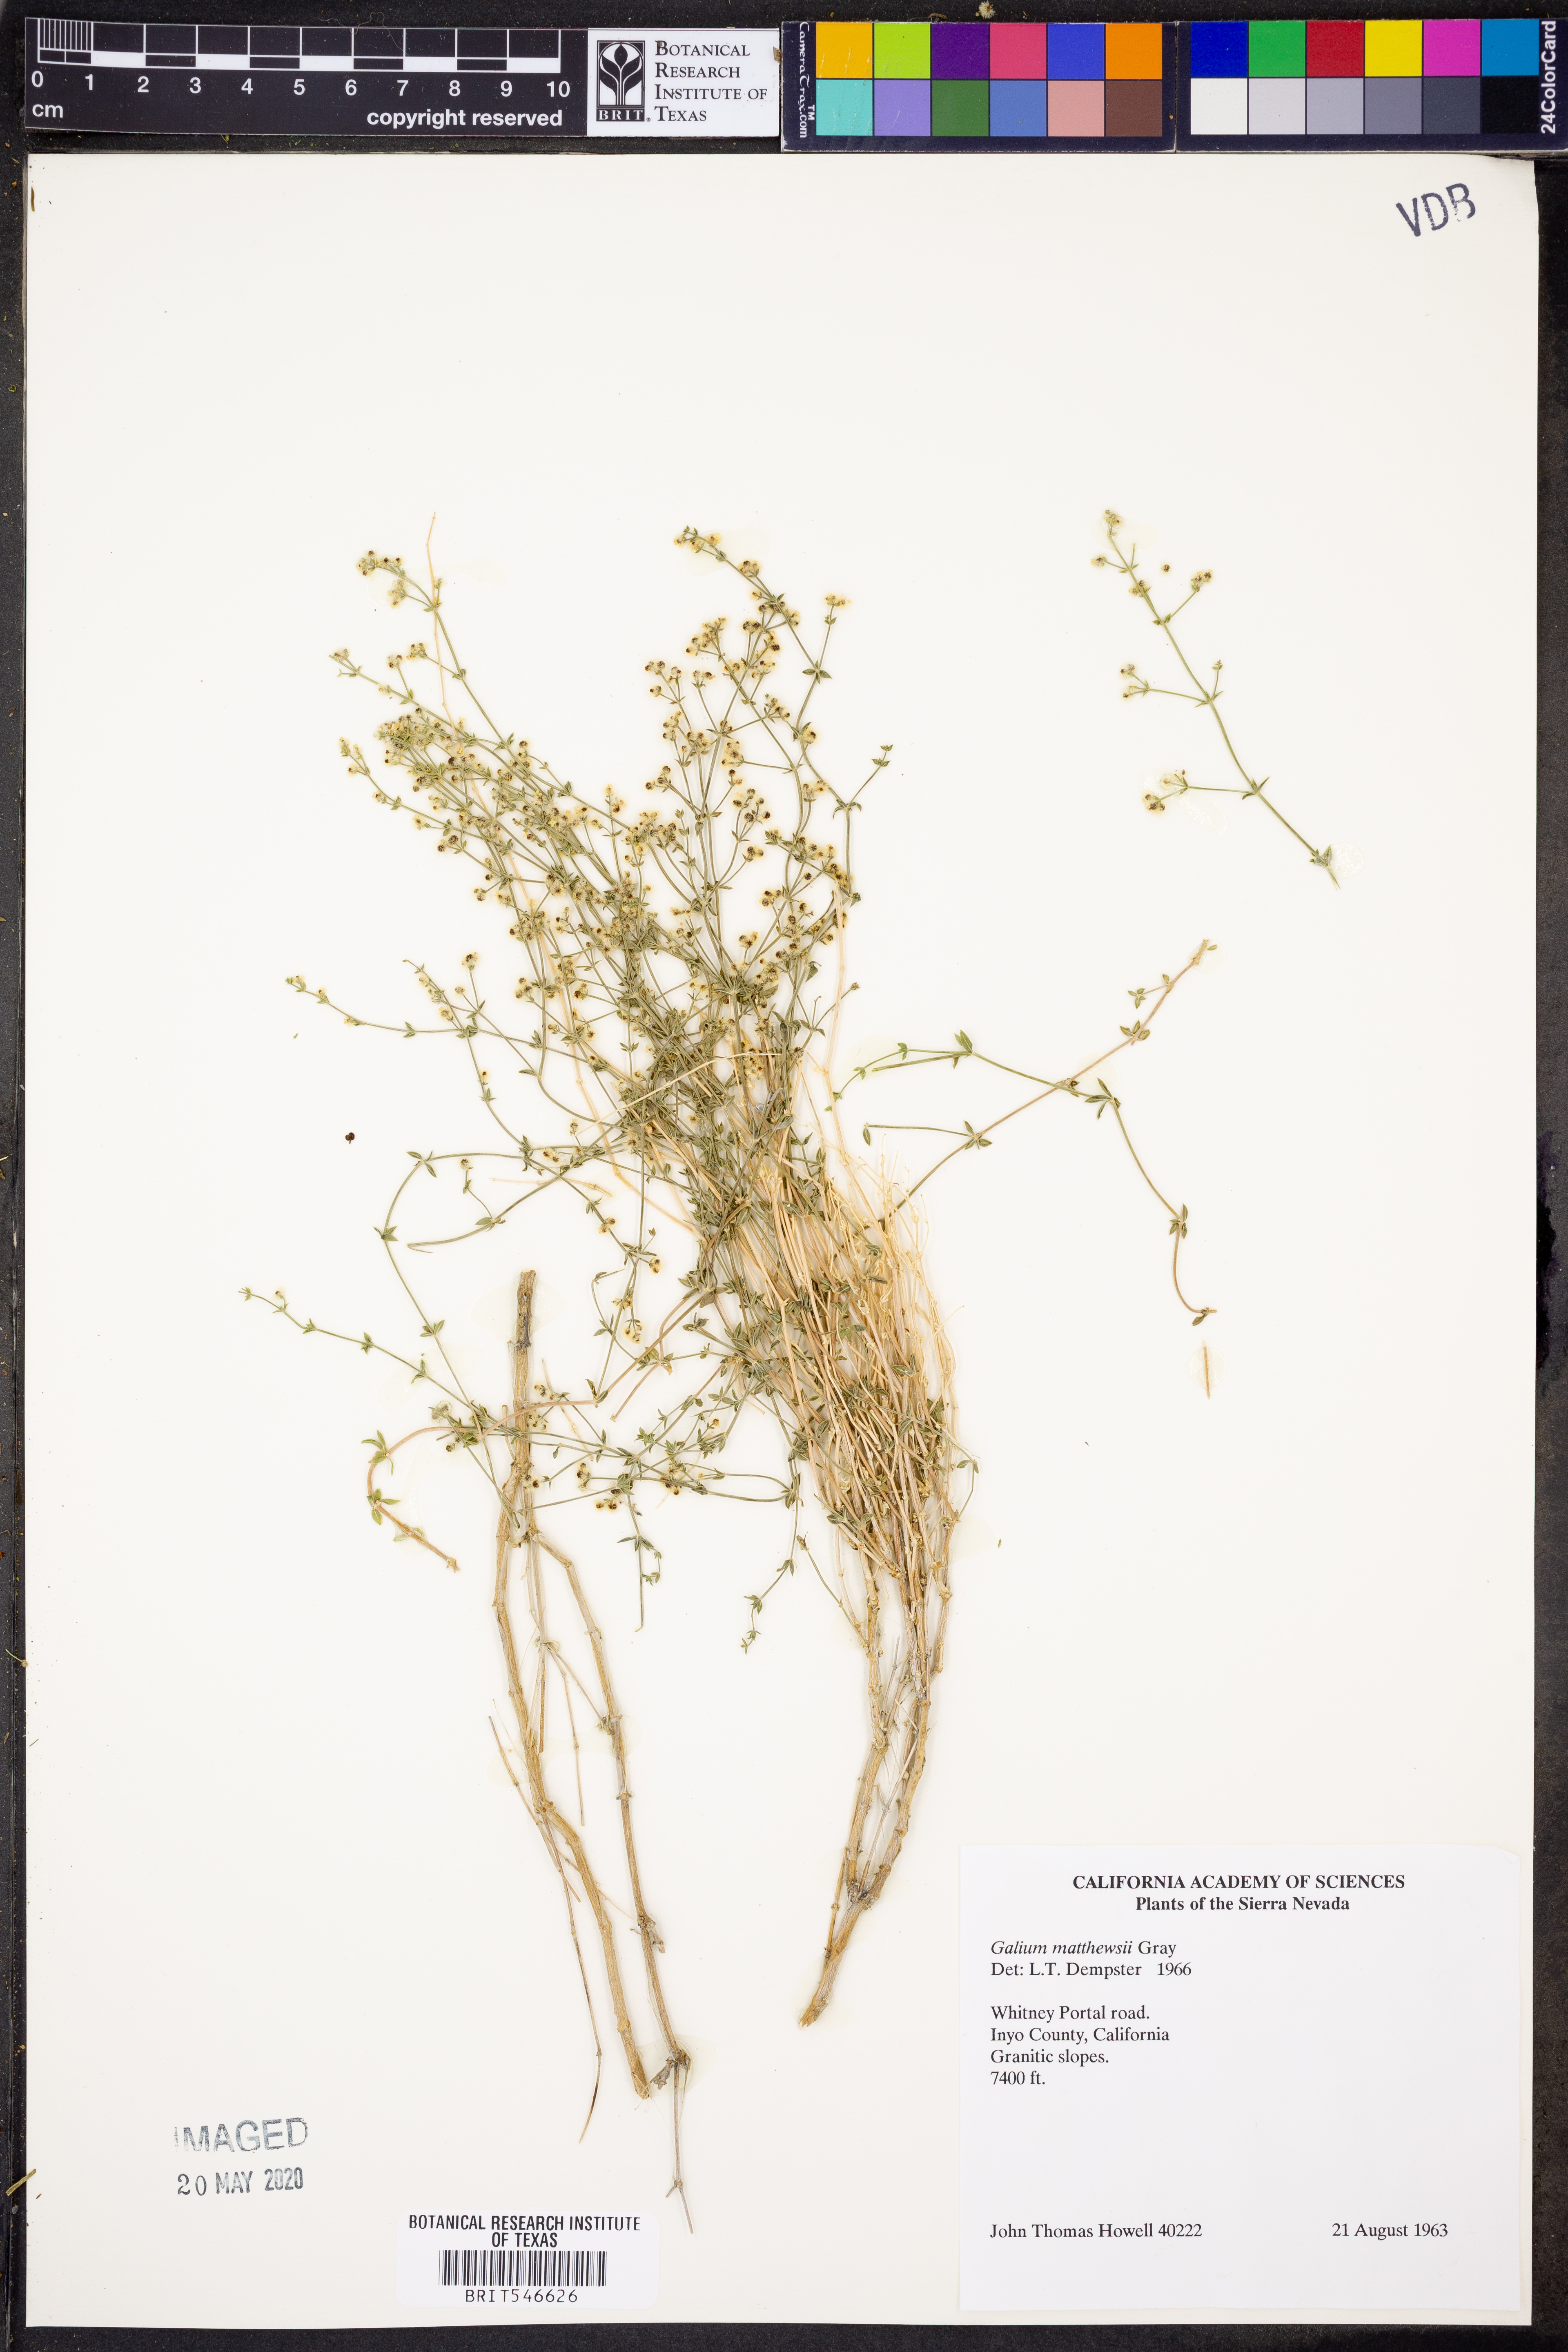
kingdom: Plantae
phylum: Tracheophyta
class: Magnoliopsida
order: Gentianales
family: Rubiaceae
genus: Galium
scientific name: Galium matthewsii
